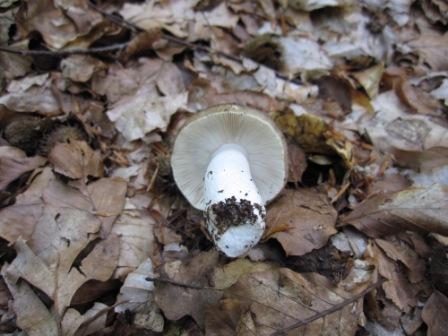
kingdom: Fungi
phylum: Basidiomycota
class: Agaricomycetes
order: Russulales
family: Russulaceae
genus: Russula
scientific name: Russula heterophylla
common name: gaffelbladet skørhat
